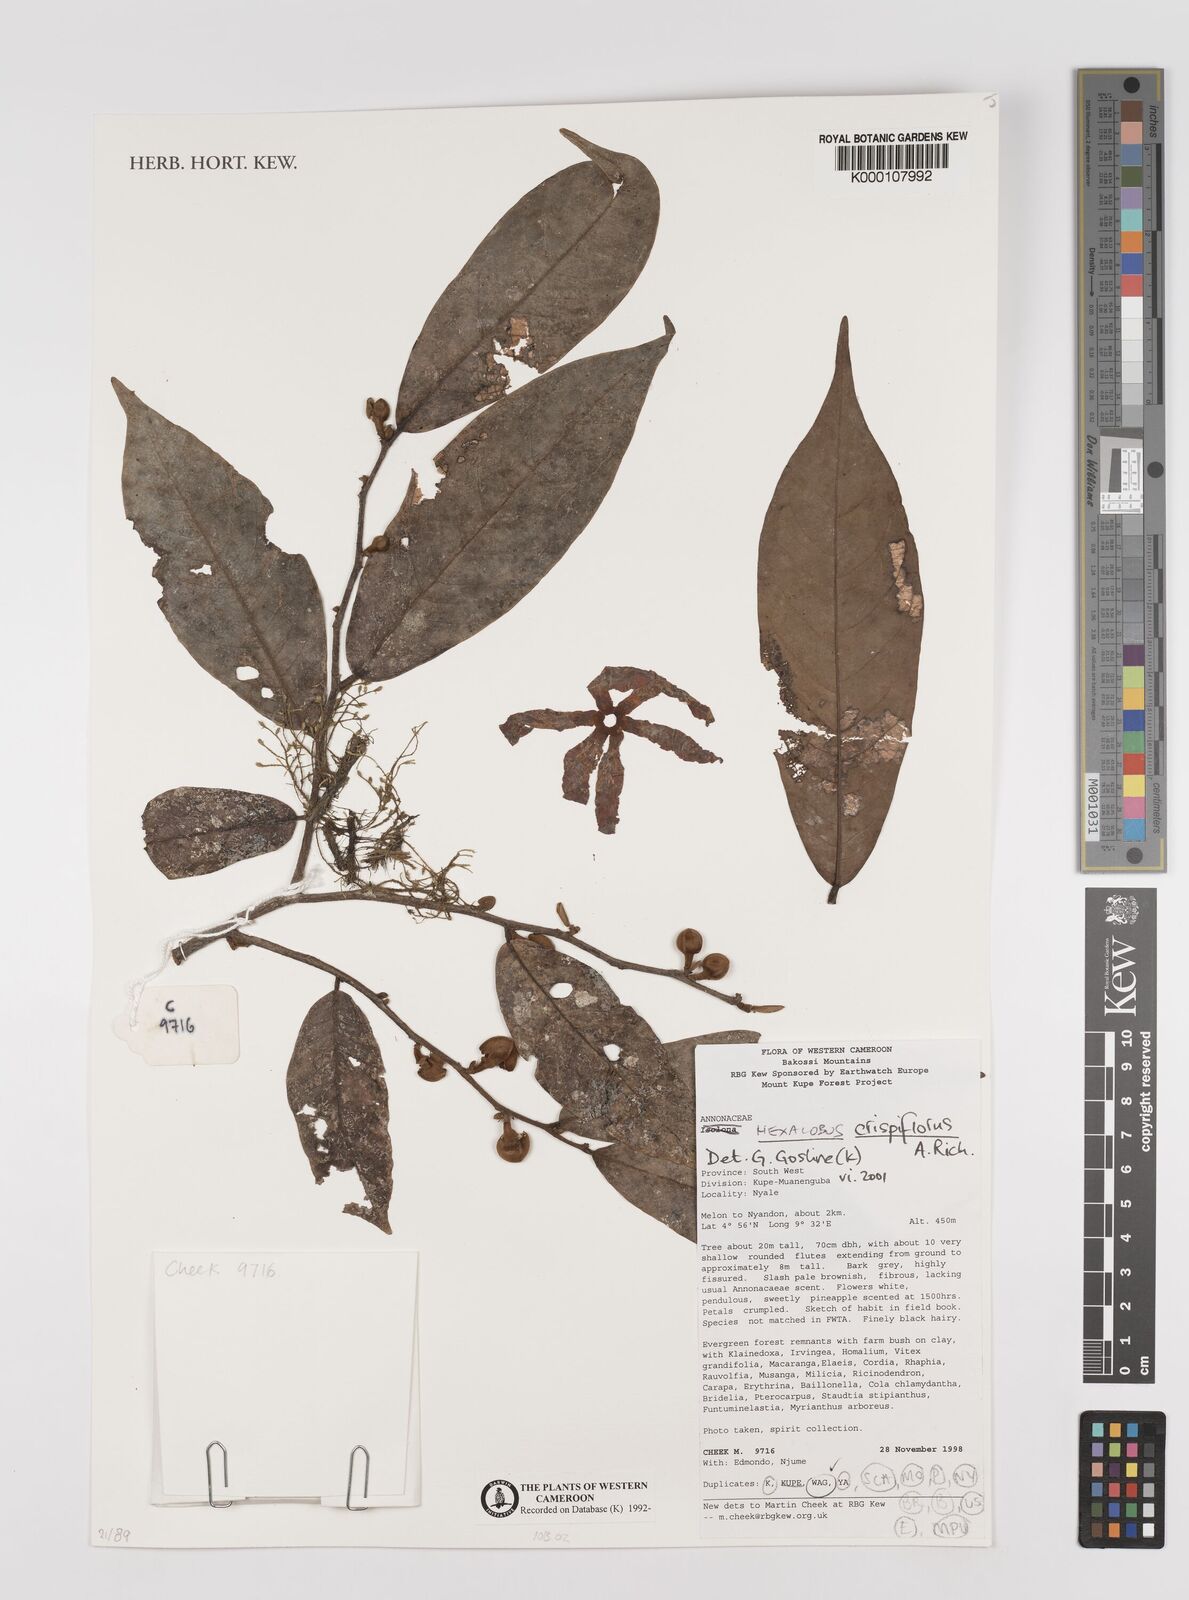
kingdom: Plantae
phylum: Tracheophyta
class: Magnoliopsida
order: Magnoliales
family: Annonaceae
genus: Hexalobus
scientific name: Hexalobus crispiflorus
